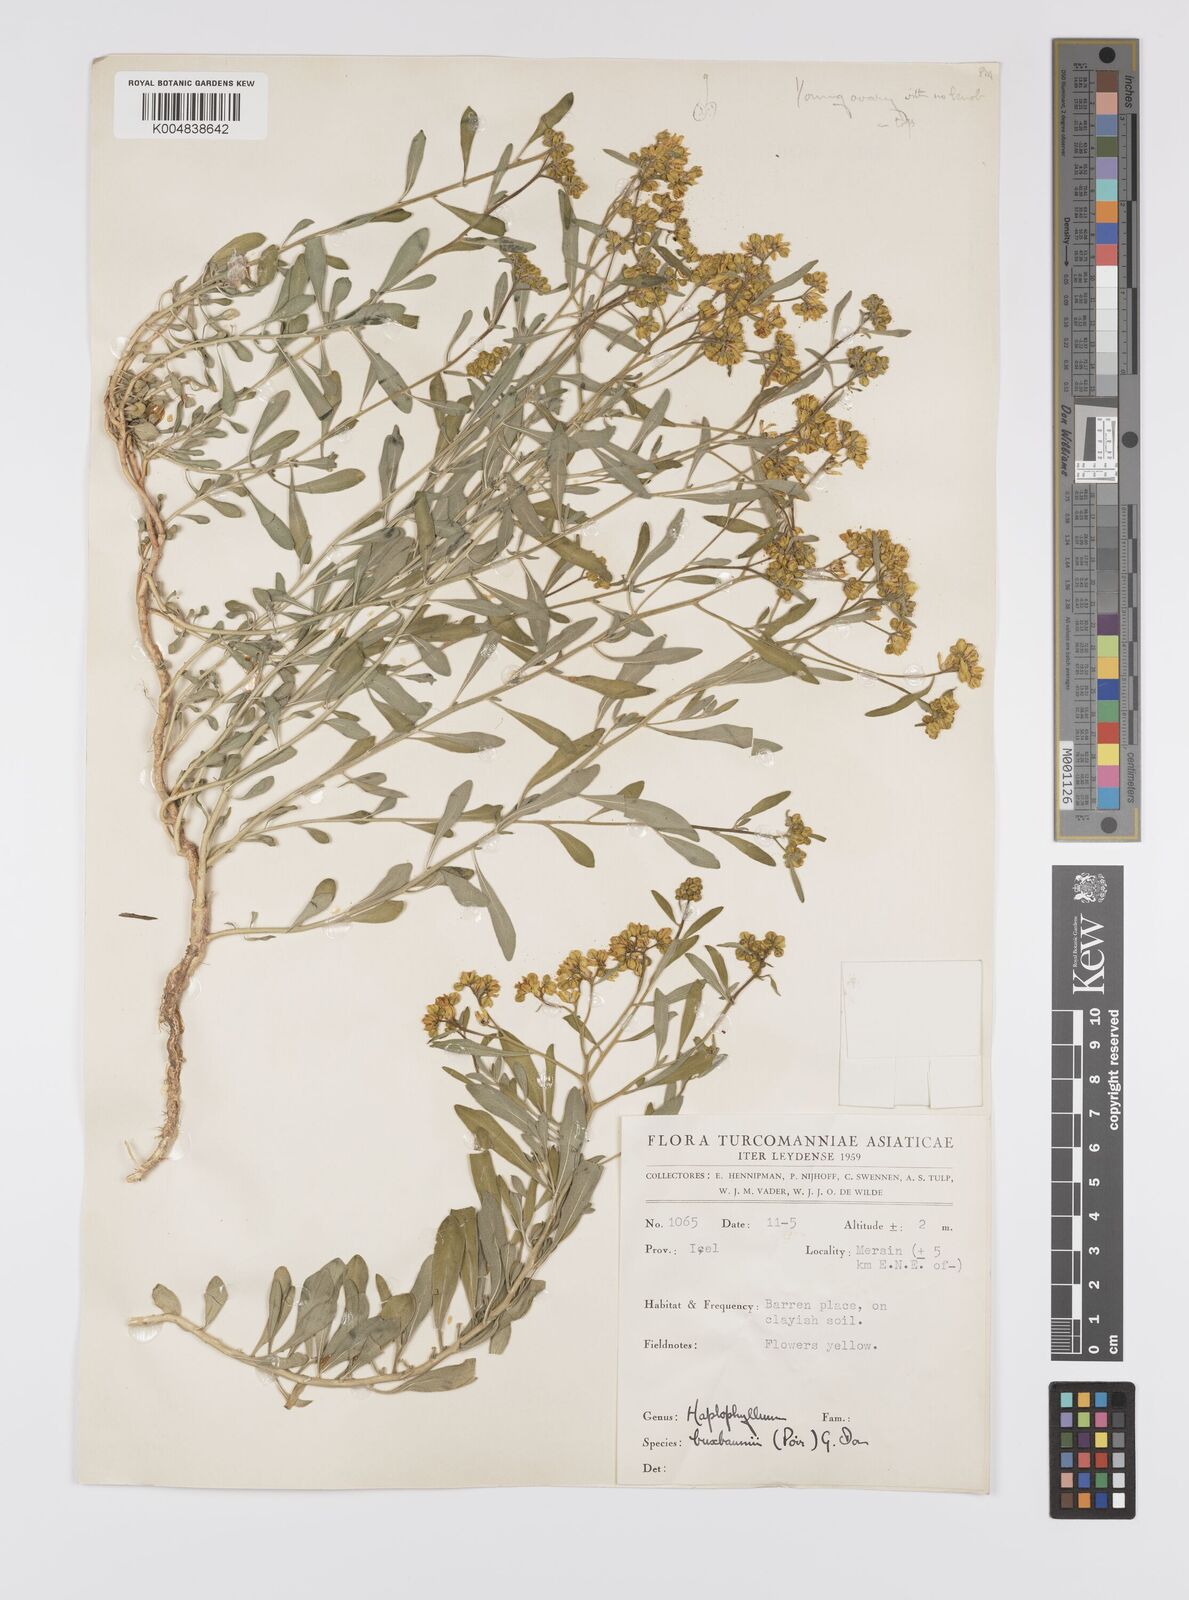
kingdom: Plantae
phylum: Tracheophyta
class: Magnoliopsida
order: Sapindales
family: Rutaceae
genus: Haplophyllum
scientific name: Haplophyllum
